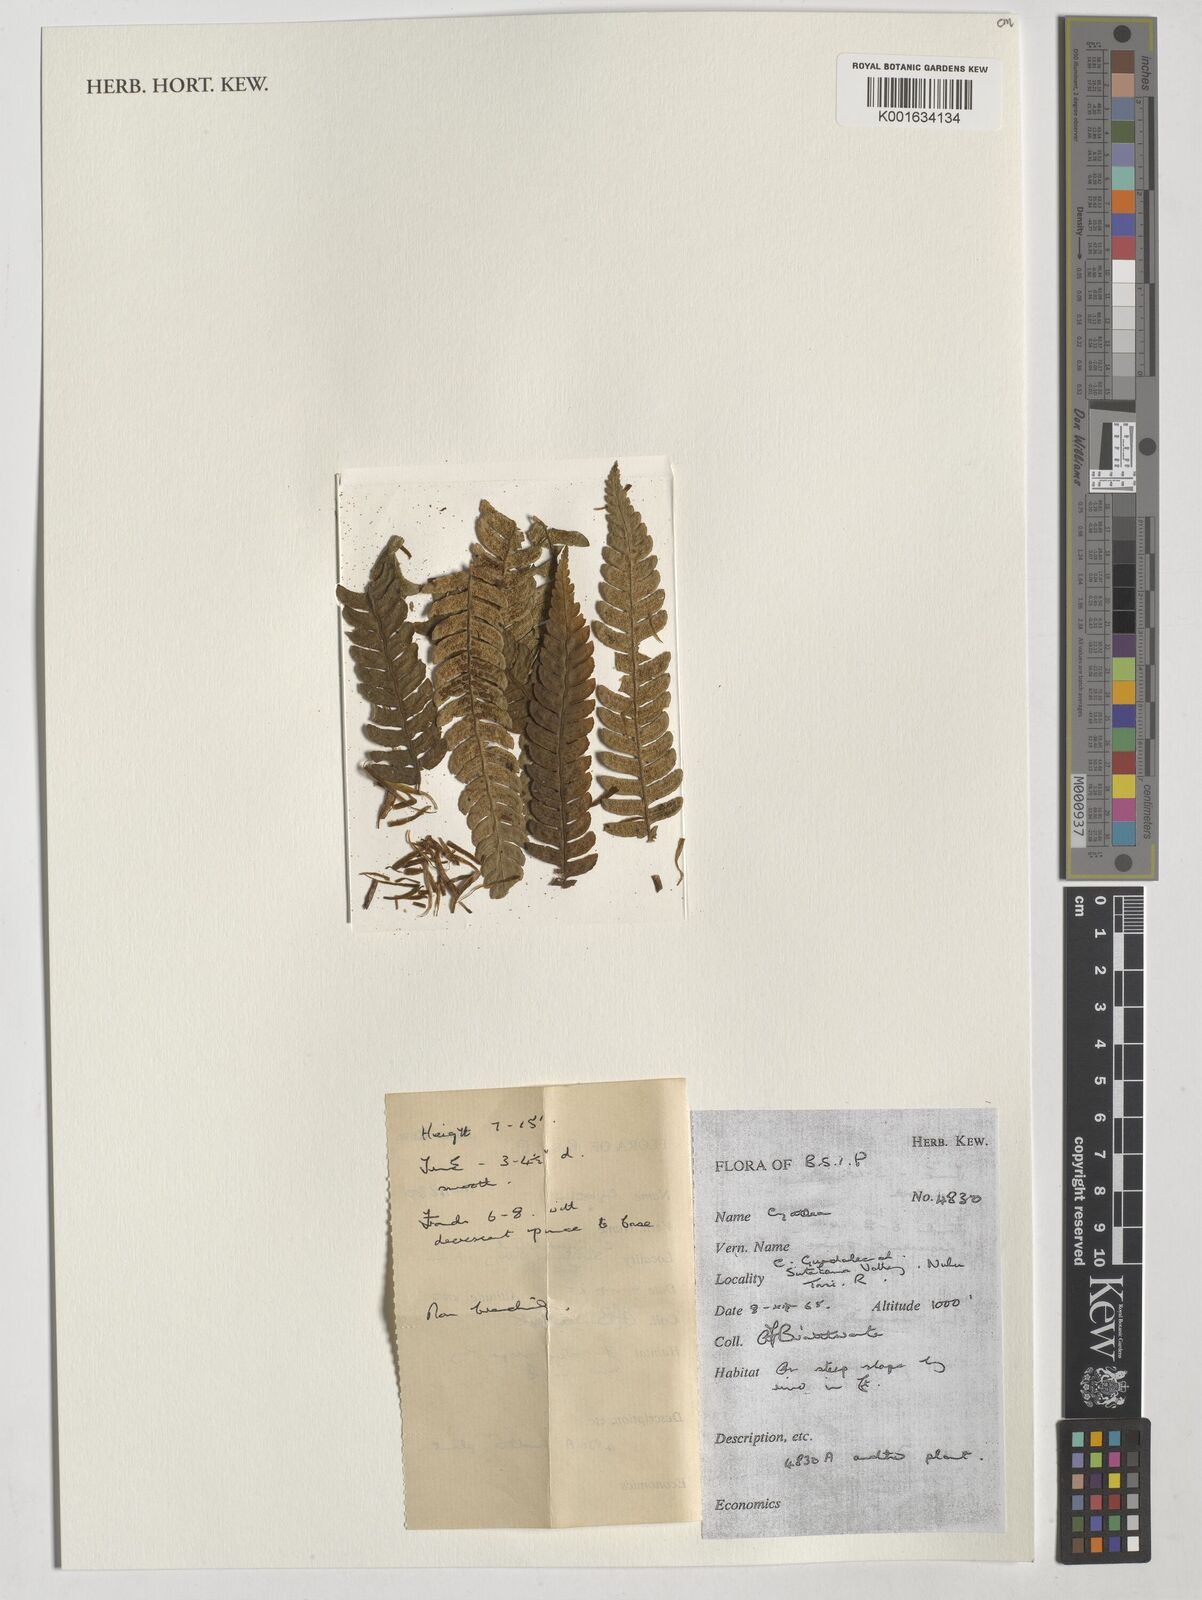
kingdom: Plantae
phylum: Tracheophyta
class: Polypodiopsida
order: Cyatheales
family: Cyatheaceae
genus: Cyathea
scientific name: Cyathea
